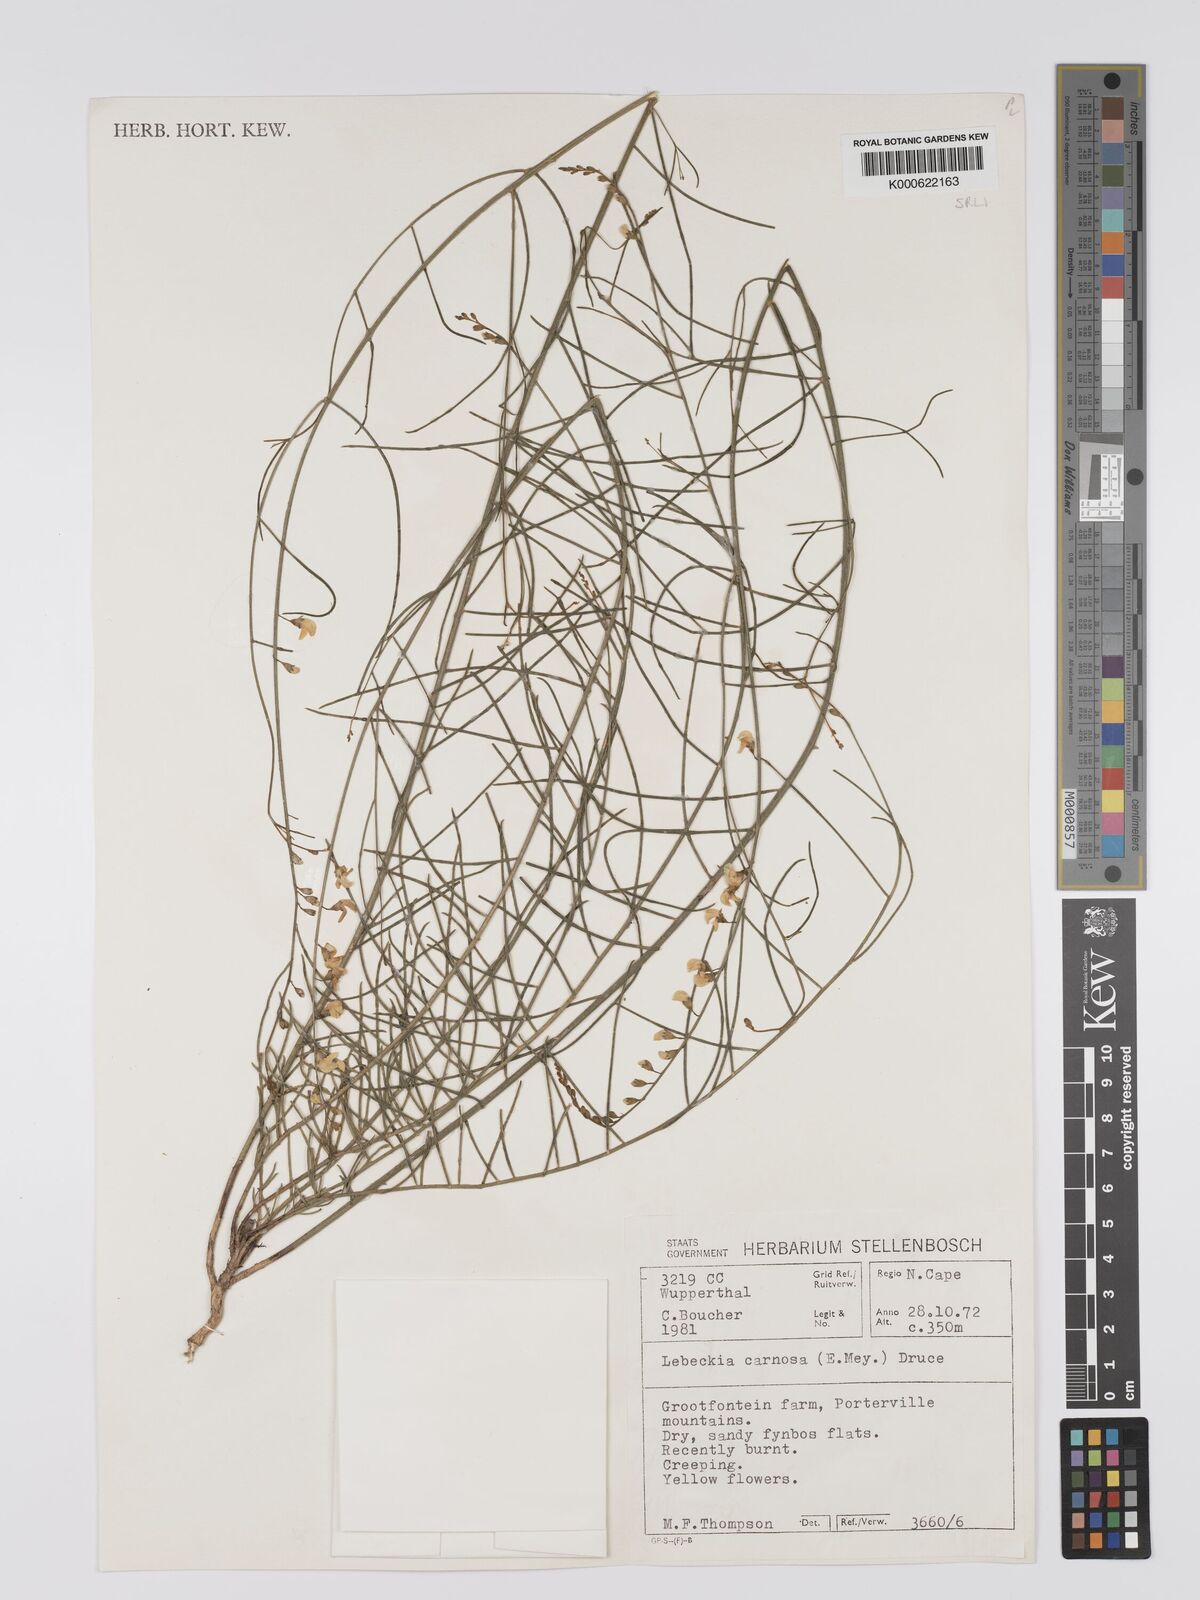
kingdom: Plantae
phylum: Tracheophyta
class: Magnoliopsida
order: Fabales
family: Fabaceae
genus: Lebeckia
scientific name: Lebeckia contaminata
